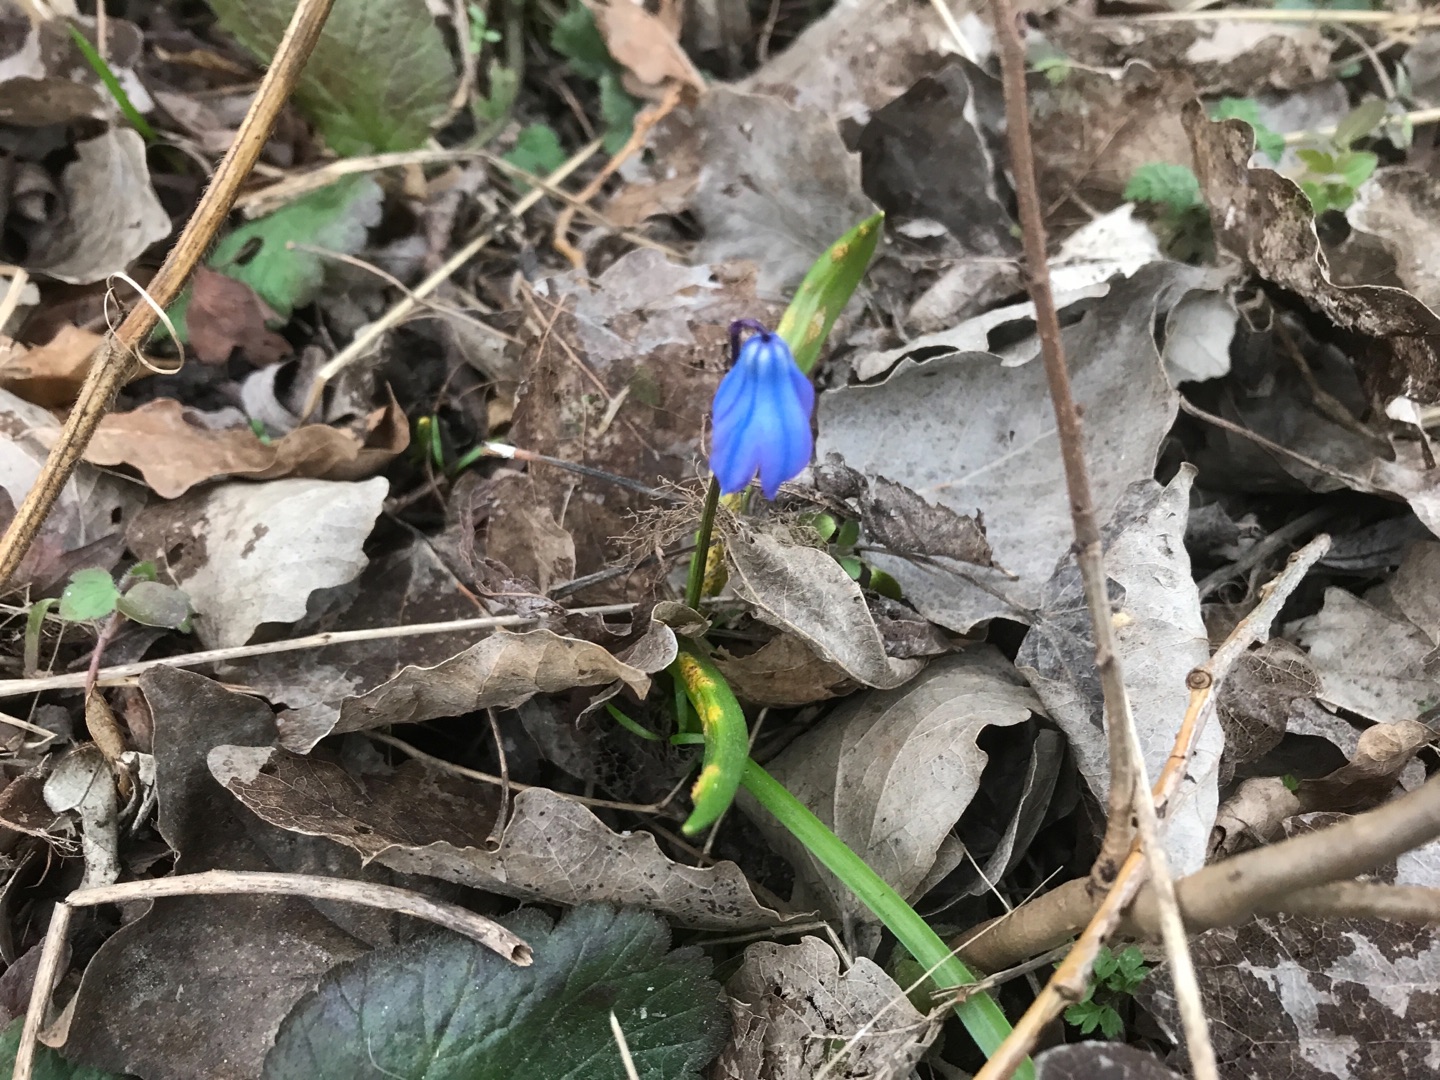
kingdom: Plantae
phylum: Tracheophyta
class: Liliopsida
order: Asparagales
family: Asparagaceae
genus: Scilla
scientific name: Scilla siberica
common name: Russisk skilla
